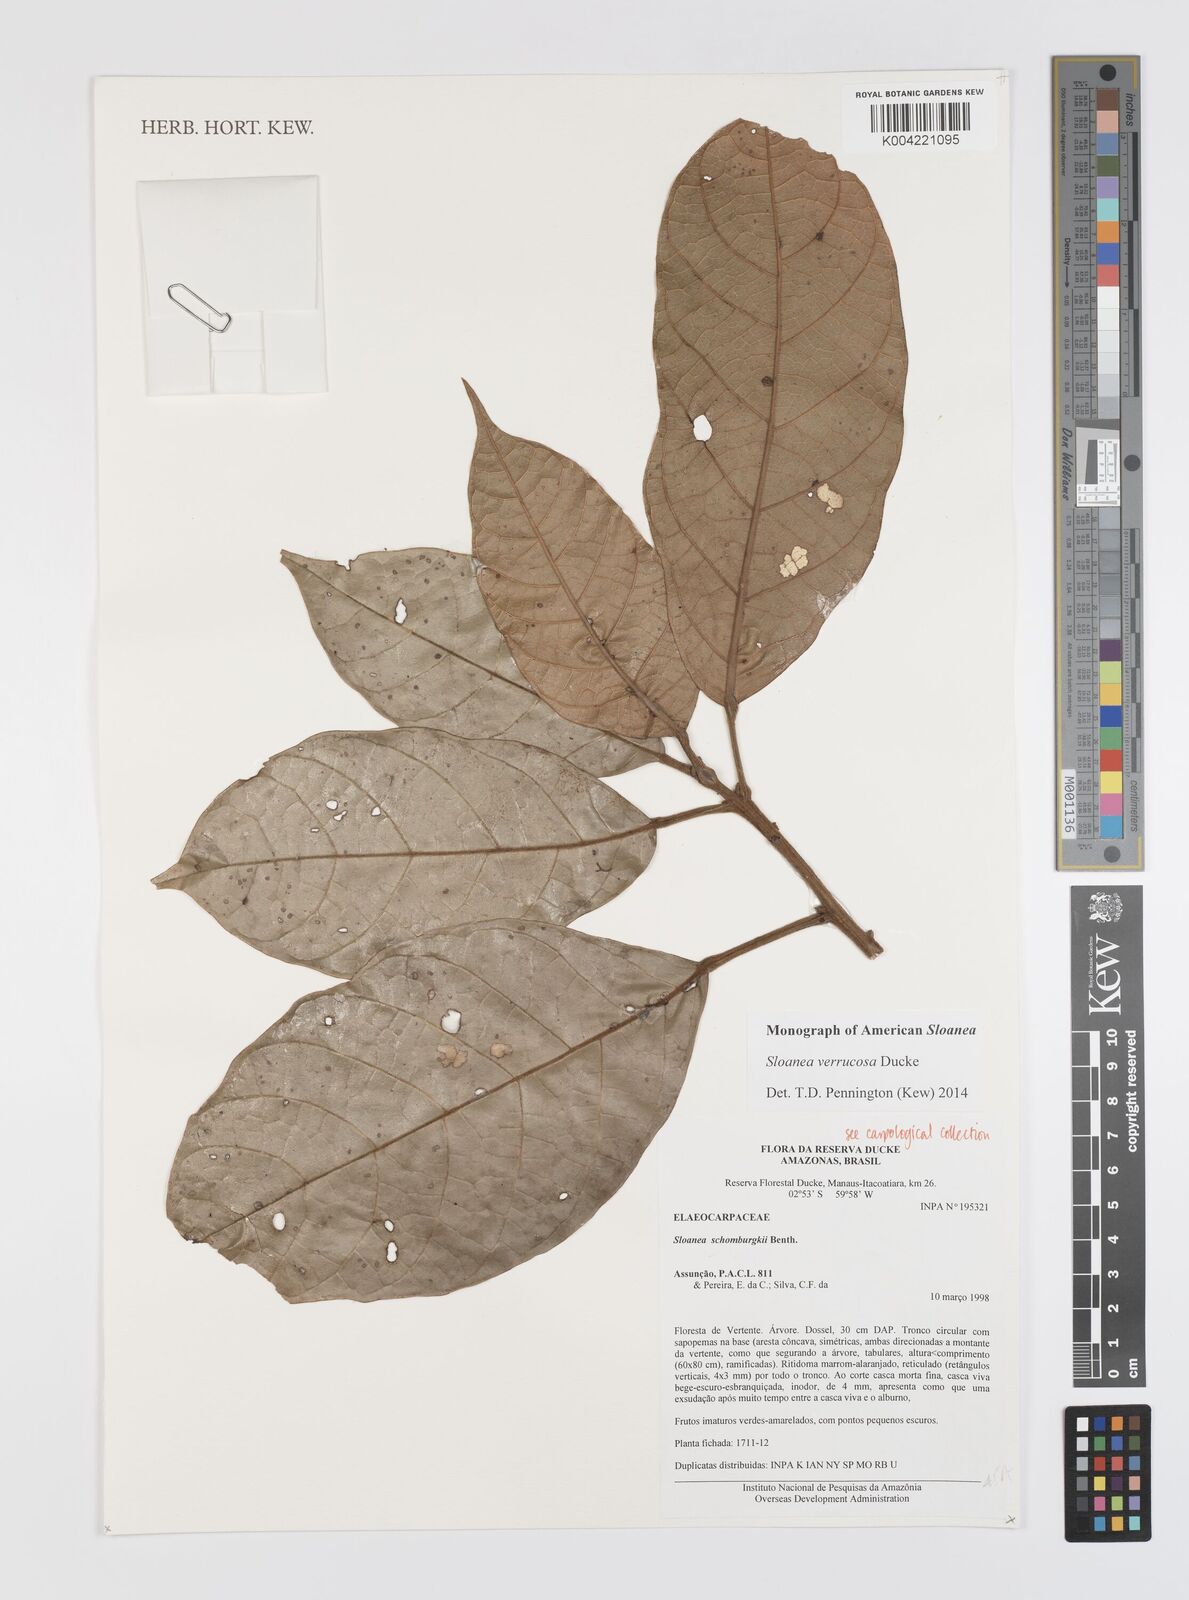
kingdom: Plantae
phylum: Tracheophyta
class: Magnoliopsida
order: Oxalidales
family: Elaeocarpaceae
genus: Sloanea
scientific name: Sloanea schomburgkii
